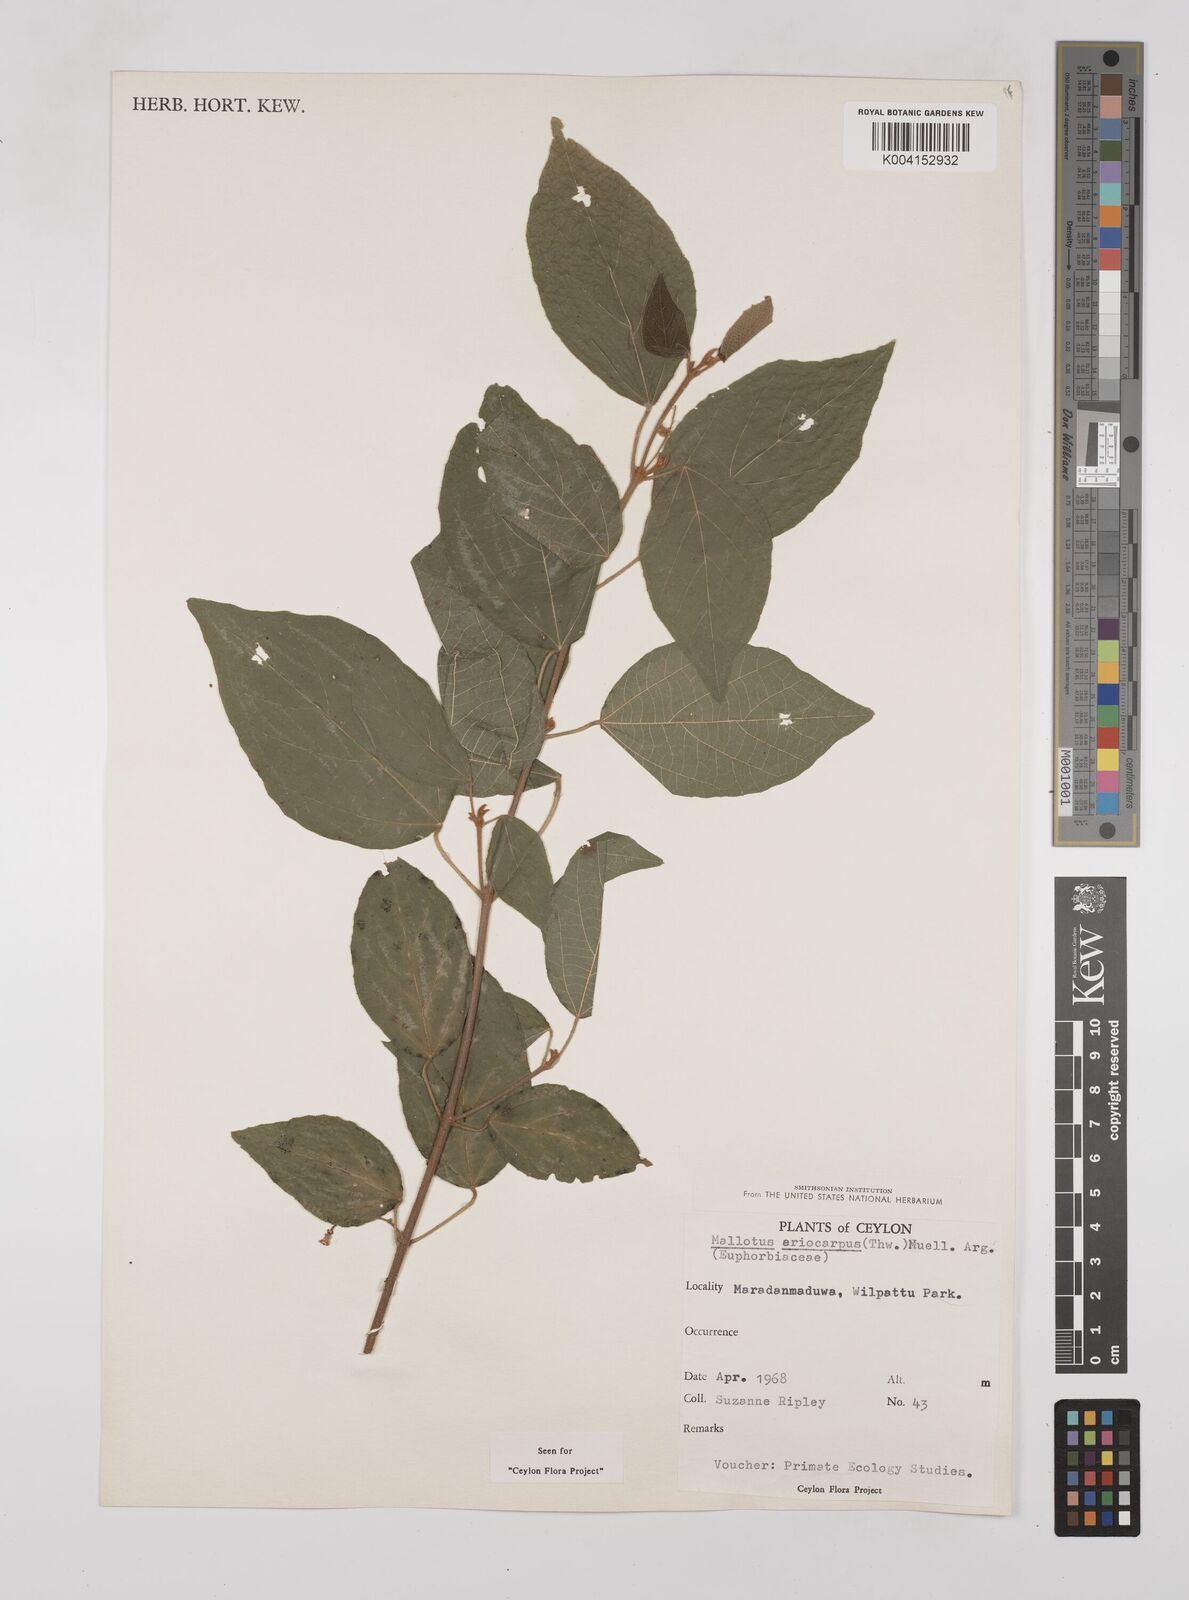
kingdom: Plantae
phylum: Tracheophyta
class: Magnoliopsida
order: Malpighiales
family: Euphorbiaceae
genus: Mallotus
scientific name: Mallotus eriocarpus
